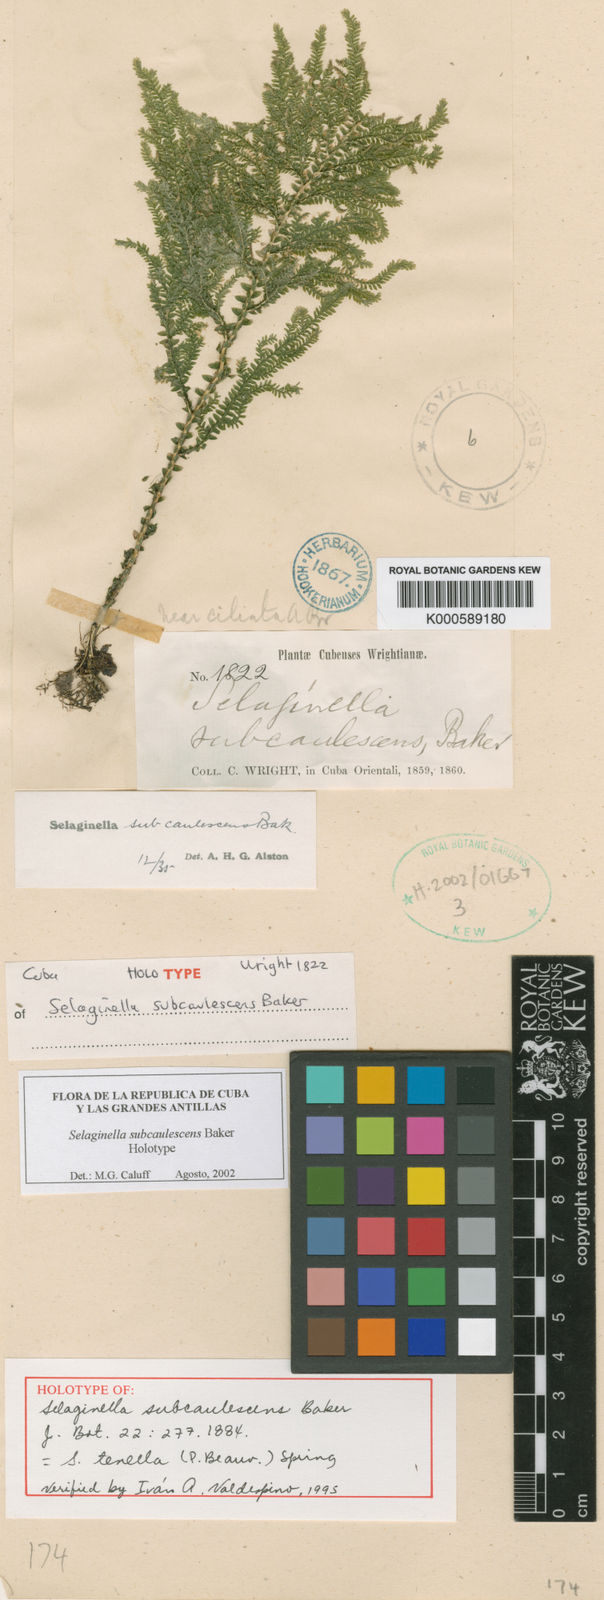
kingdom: Plantae
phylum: Tracheophyta
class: Lycopodiopsida
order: Selaginellales
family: Selaginellaceae
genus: Selaginella
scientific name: Selaginella tenella
